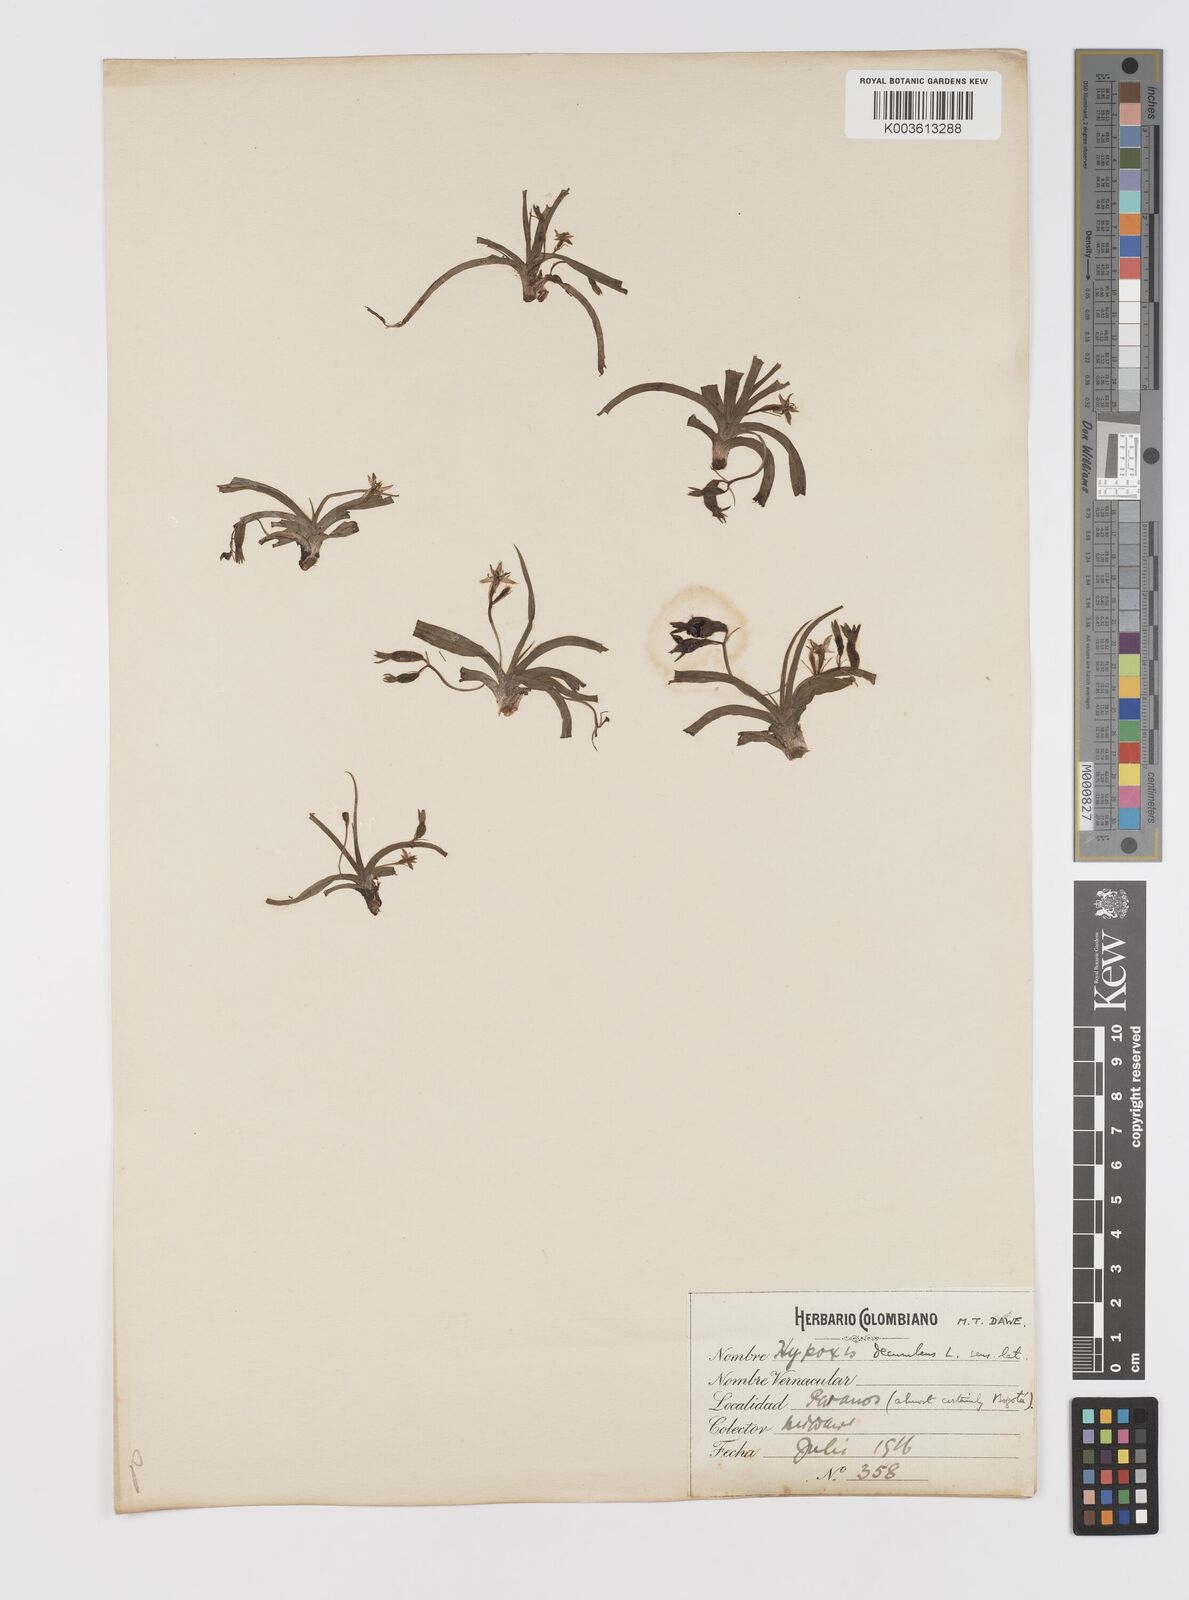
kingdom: Plantae
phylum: Tracheophyta
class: Liliopsida
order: Asparagales
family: Hypoxidaceae
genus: Hypoxis
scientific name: Hypoxis decumbens
